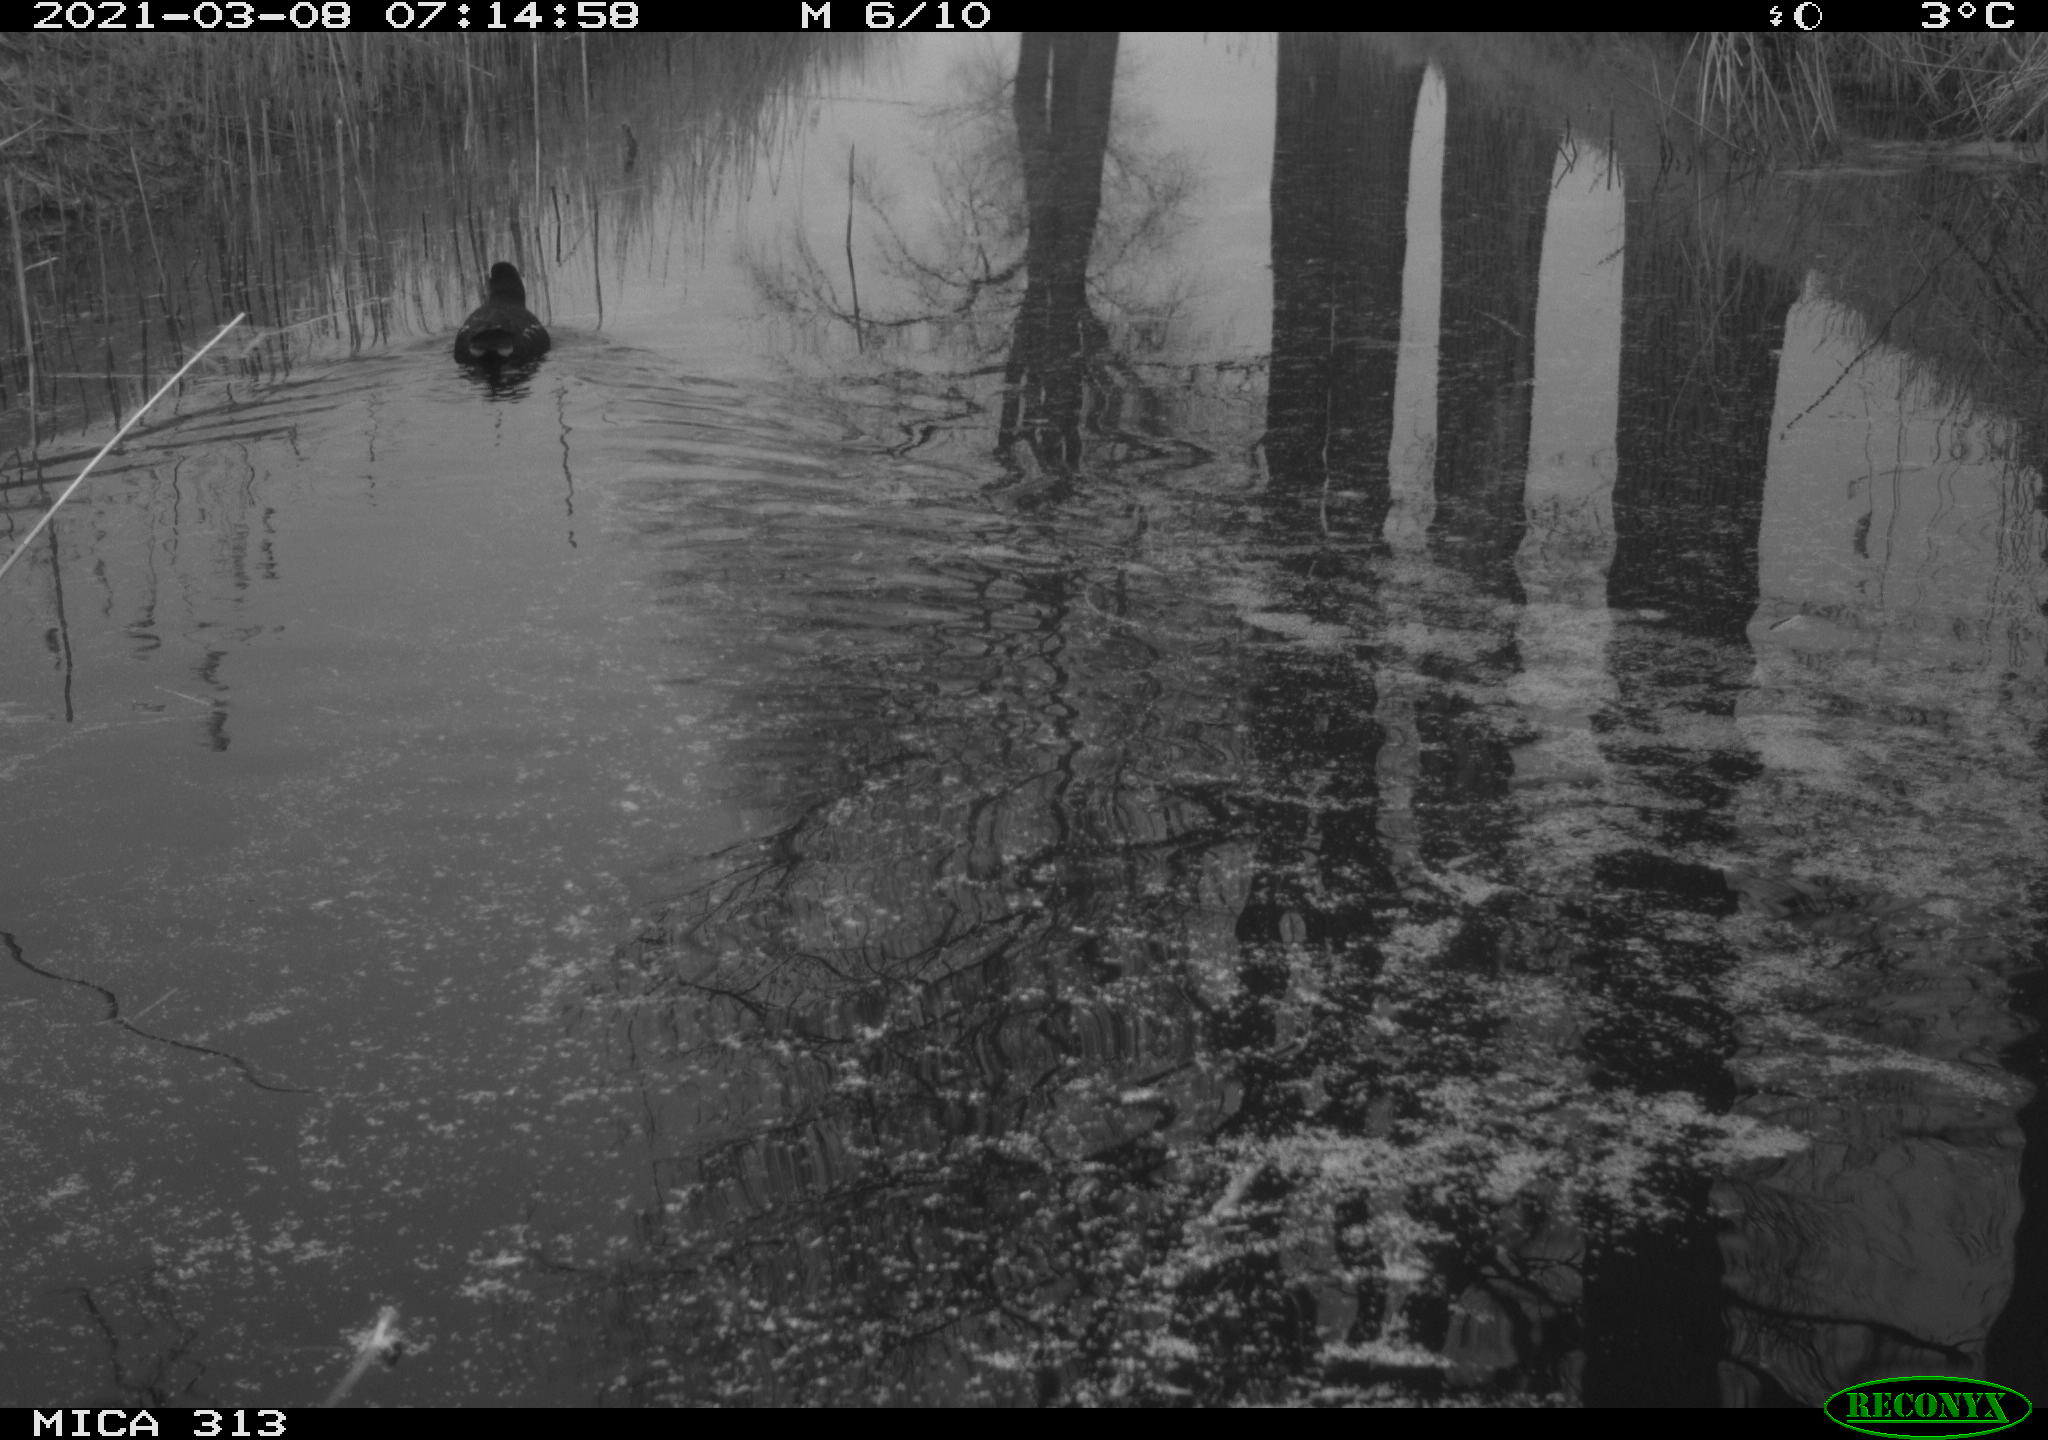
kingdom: Animalia
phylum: Chordata
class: Aves
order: Gruiformes
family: Rallidae
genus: Gallinula
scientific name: Gallinula chloropus
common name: Common moorhen
